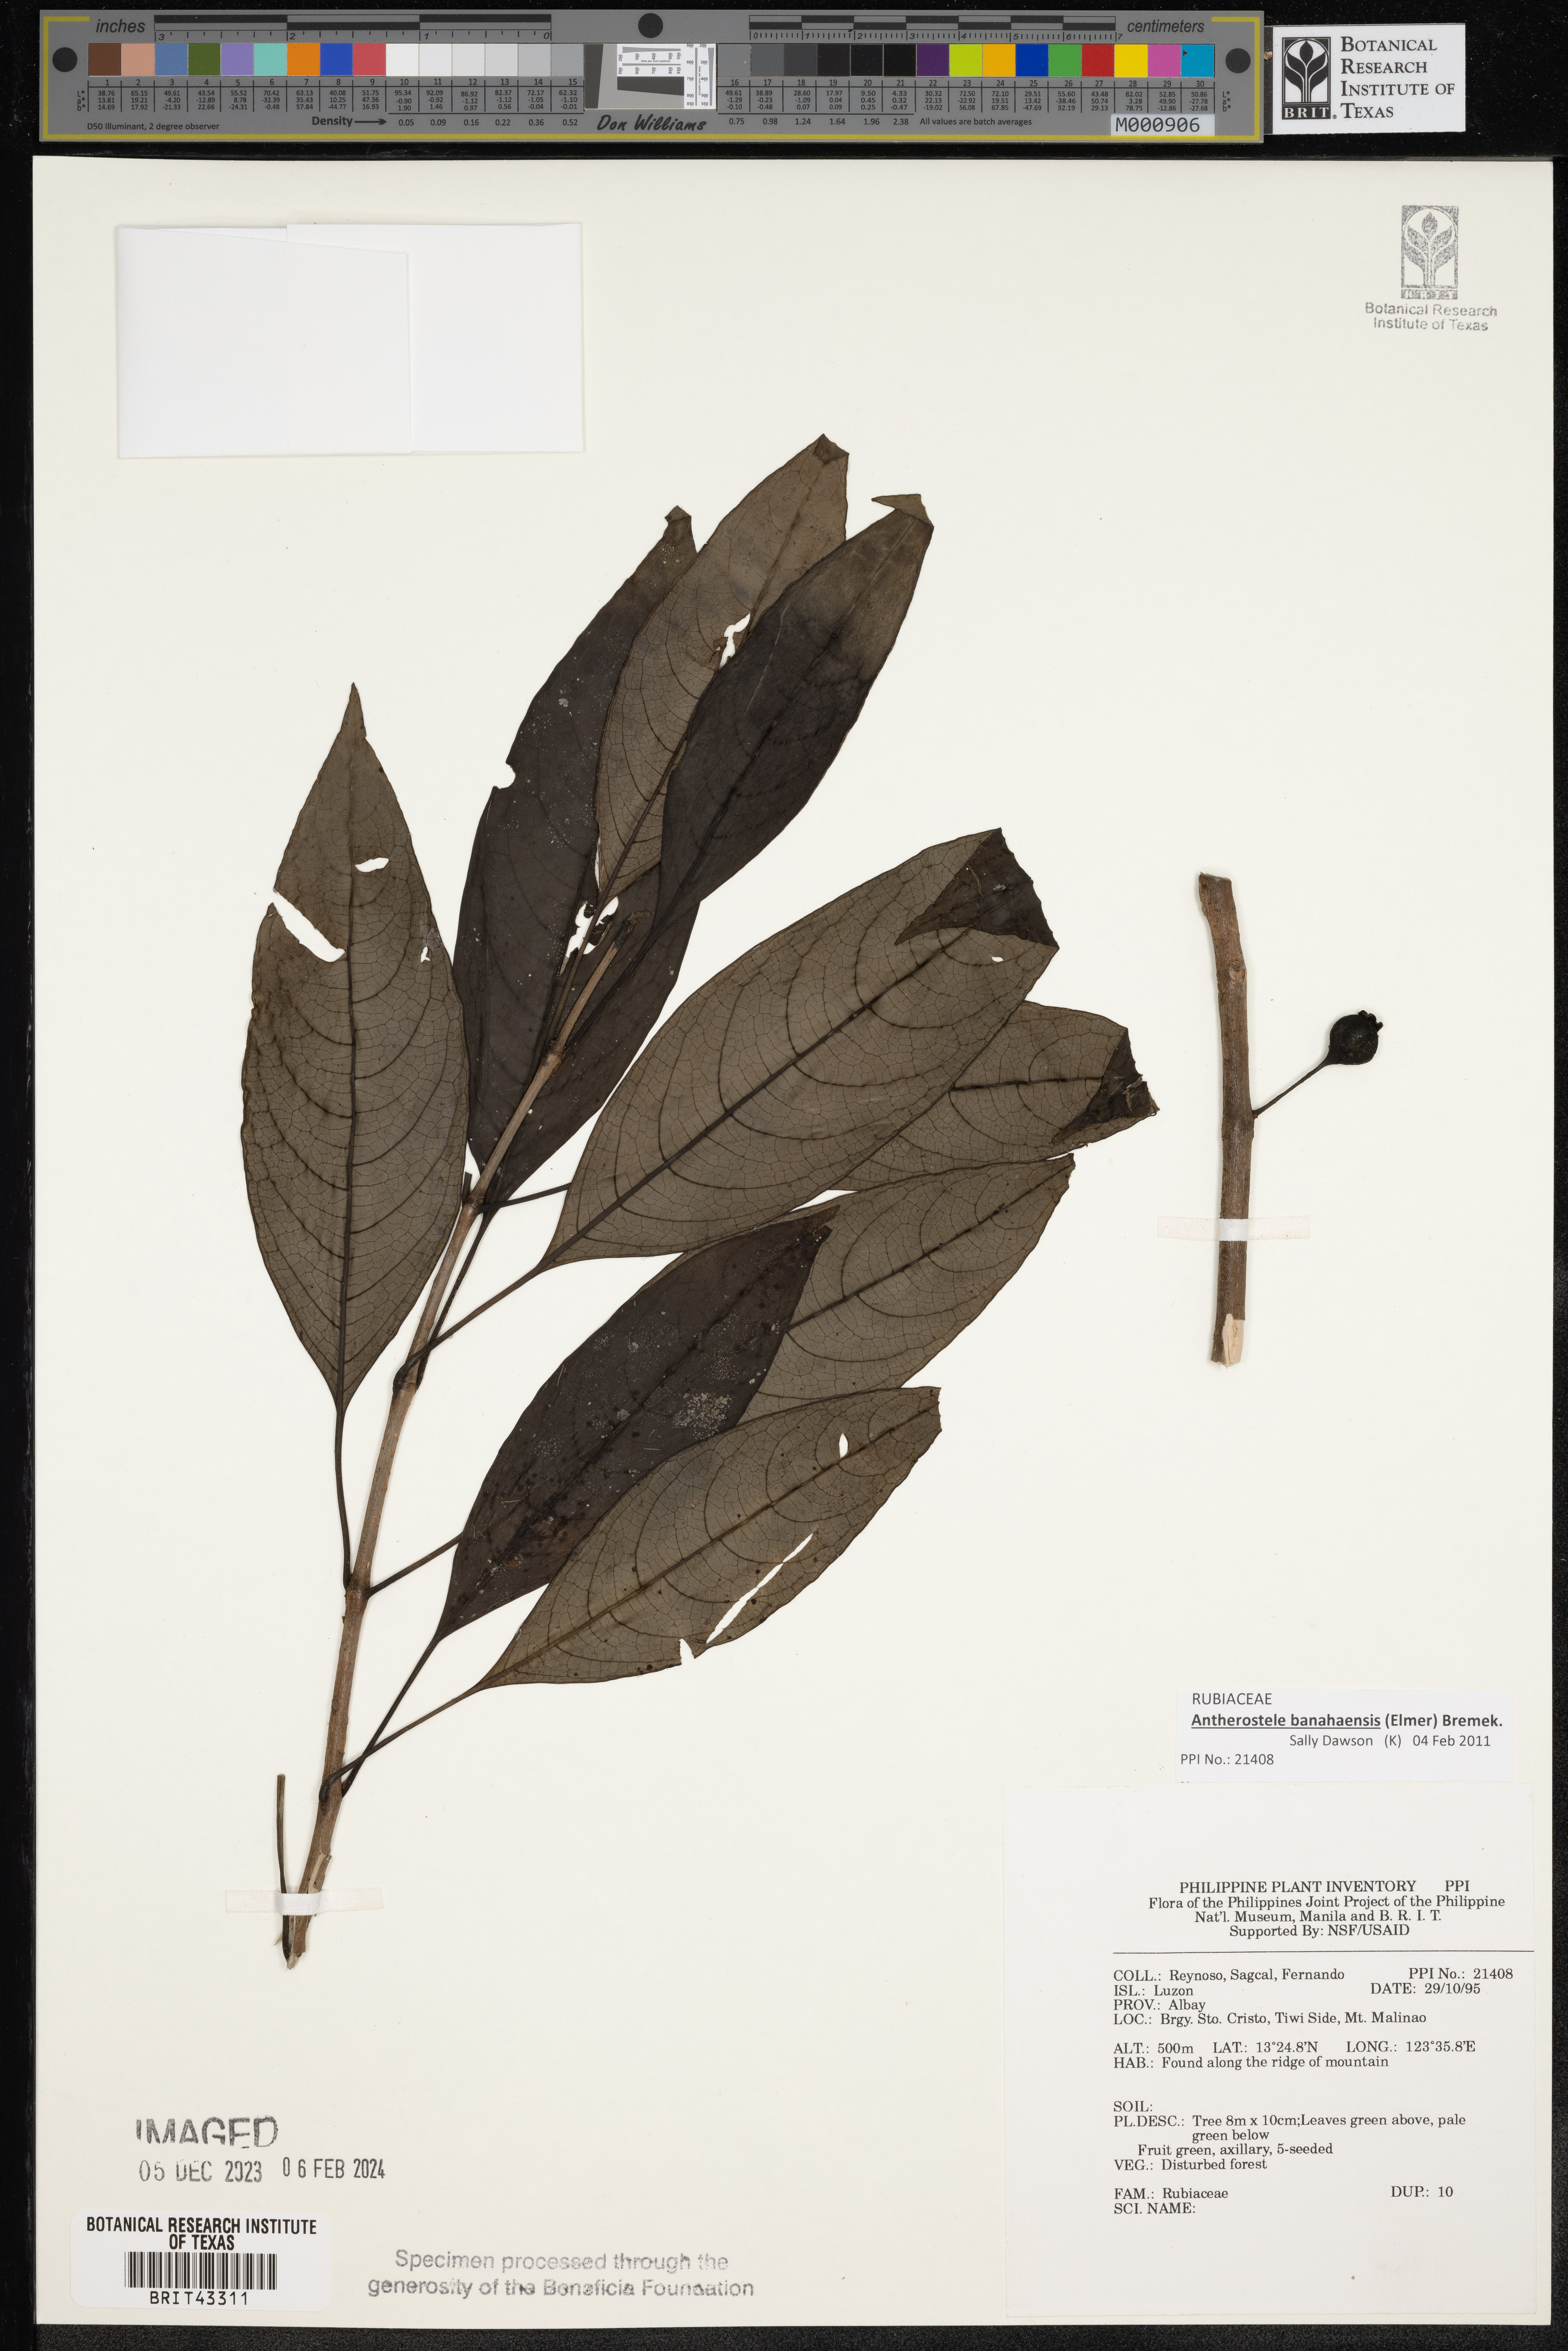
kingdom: Plantae
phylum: Tracheophyta
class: Magnoliopsida
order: Gentianales
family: Rubiaceae
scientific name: Rubiaceae
